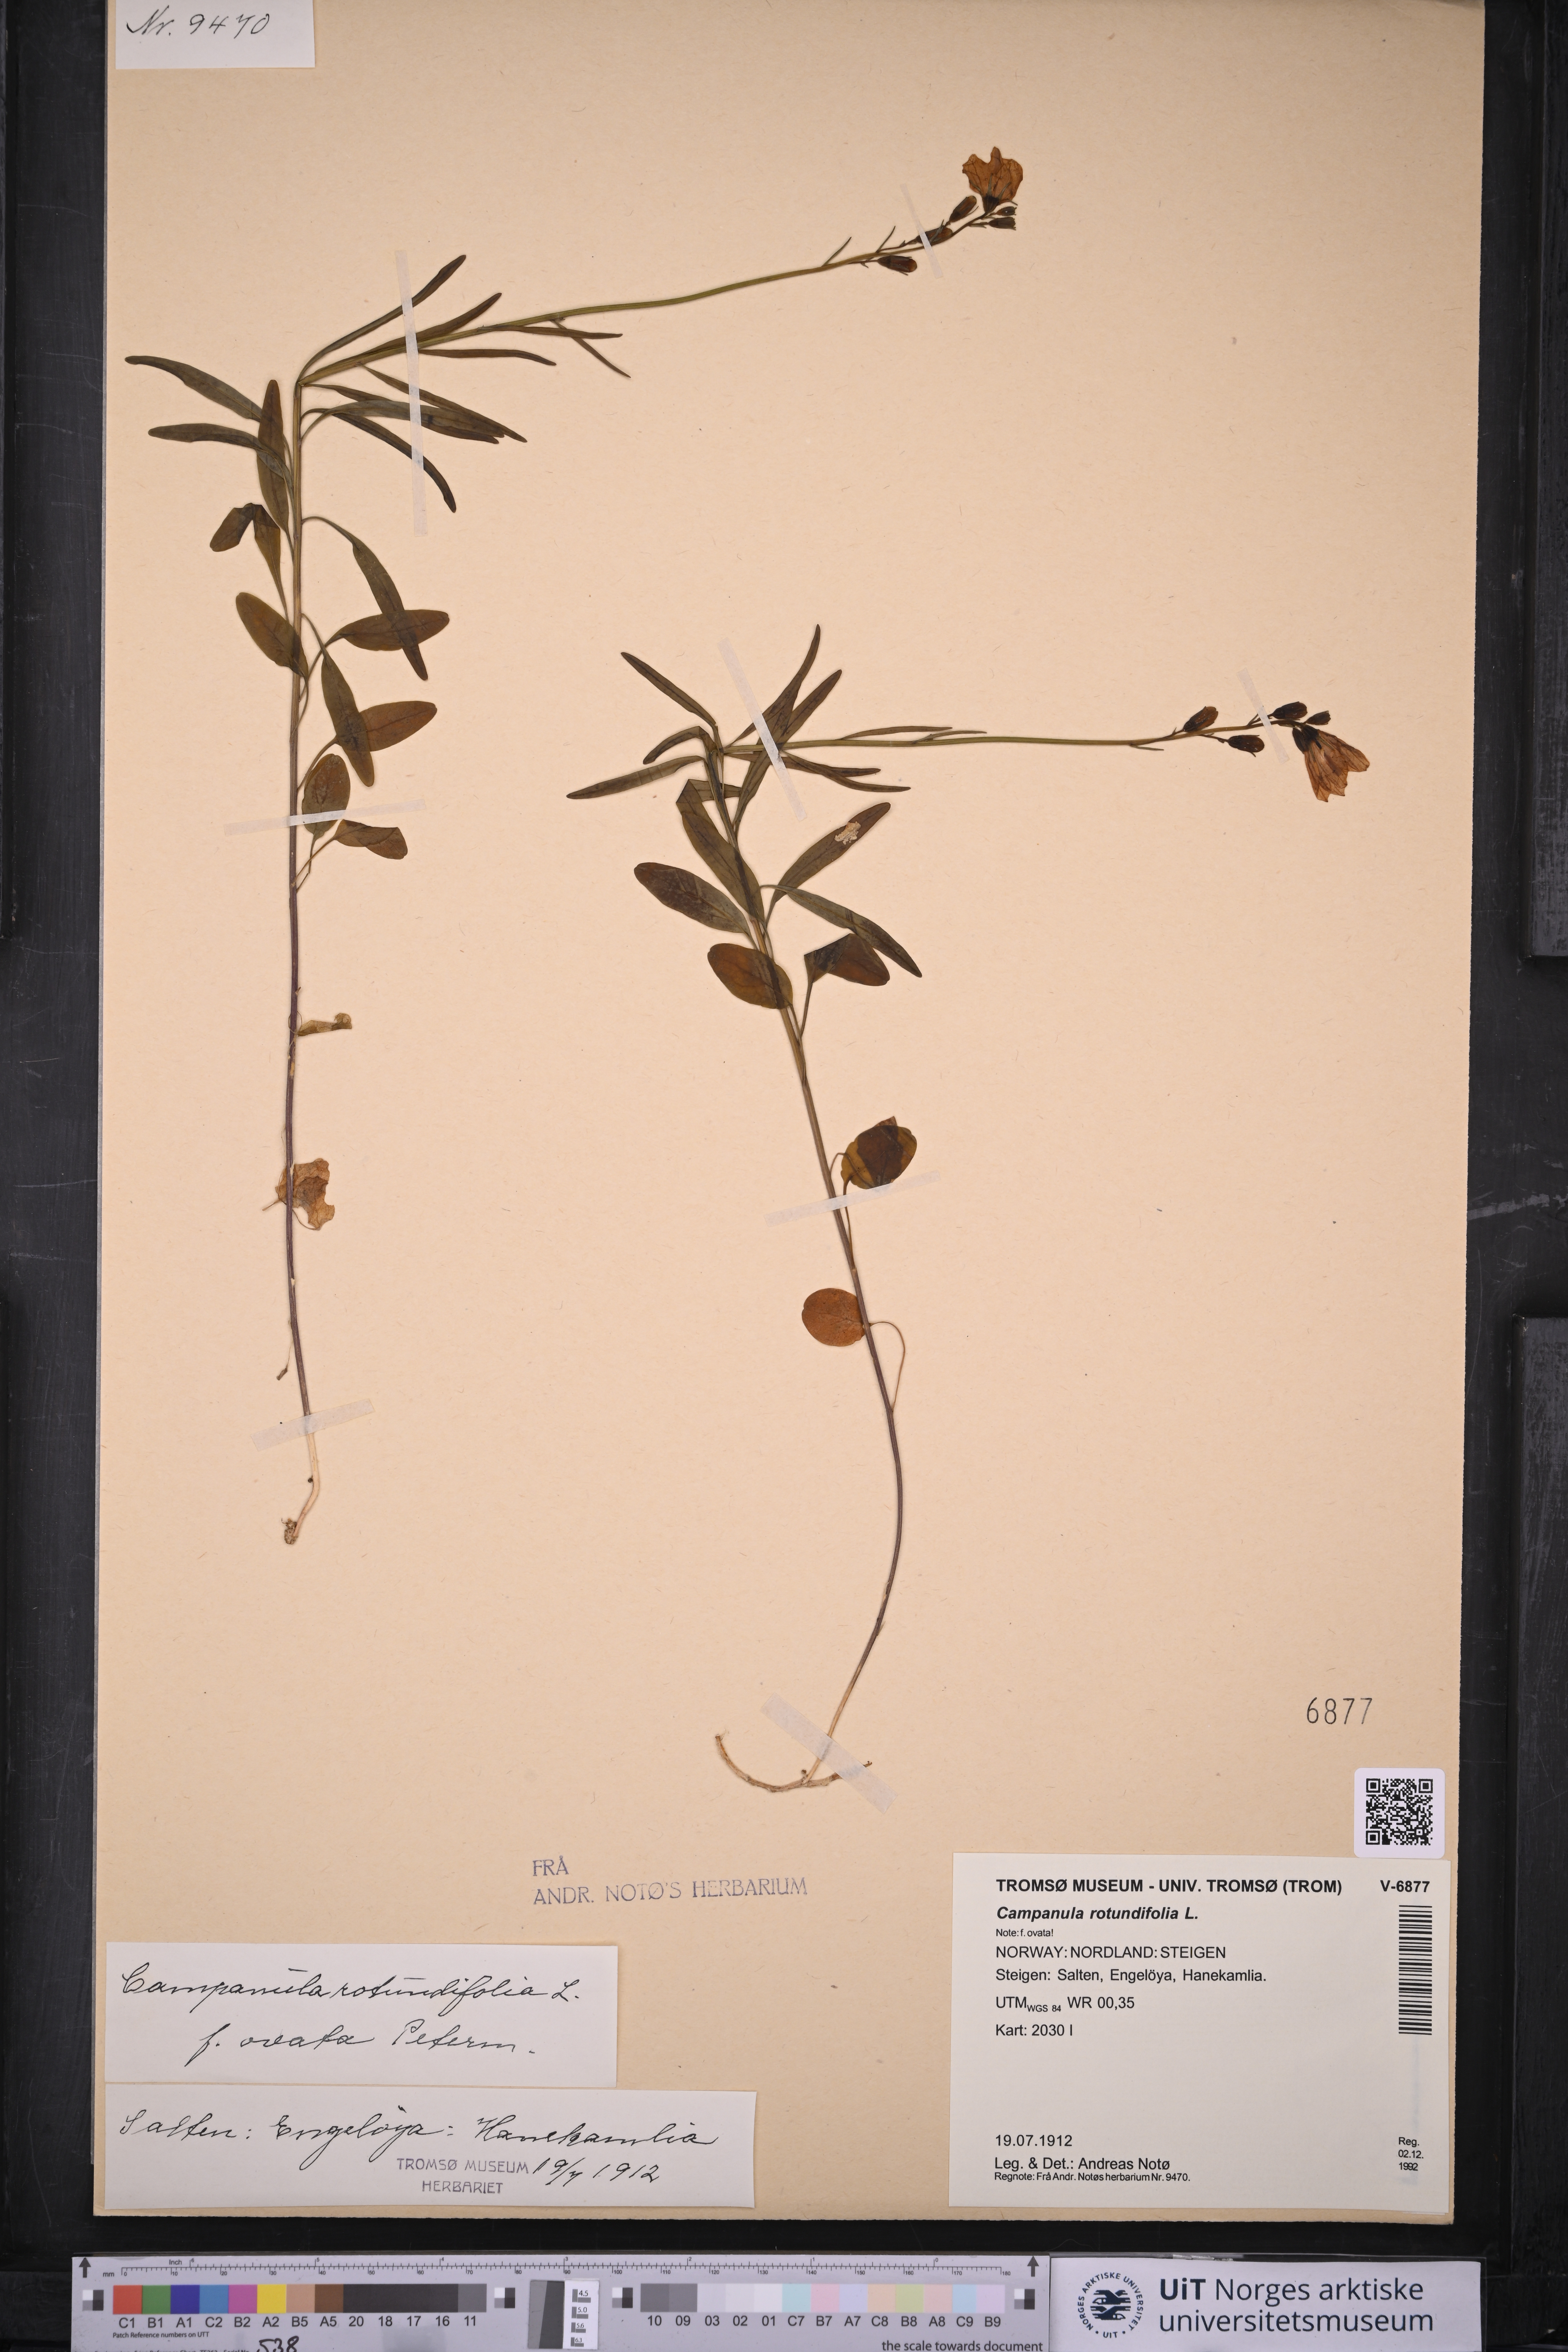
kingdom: Plantae
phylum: Tracheophyta
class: Magnoliopsida
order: Asterales
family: Campanulaceae
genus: Campanula
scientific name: Campanula rotundifolia
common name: Harebell
